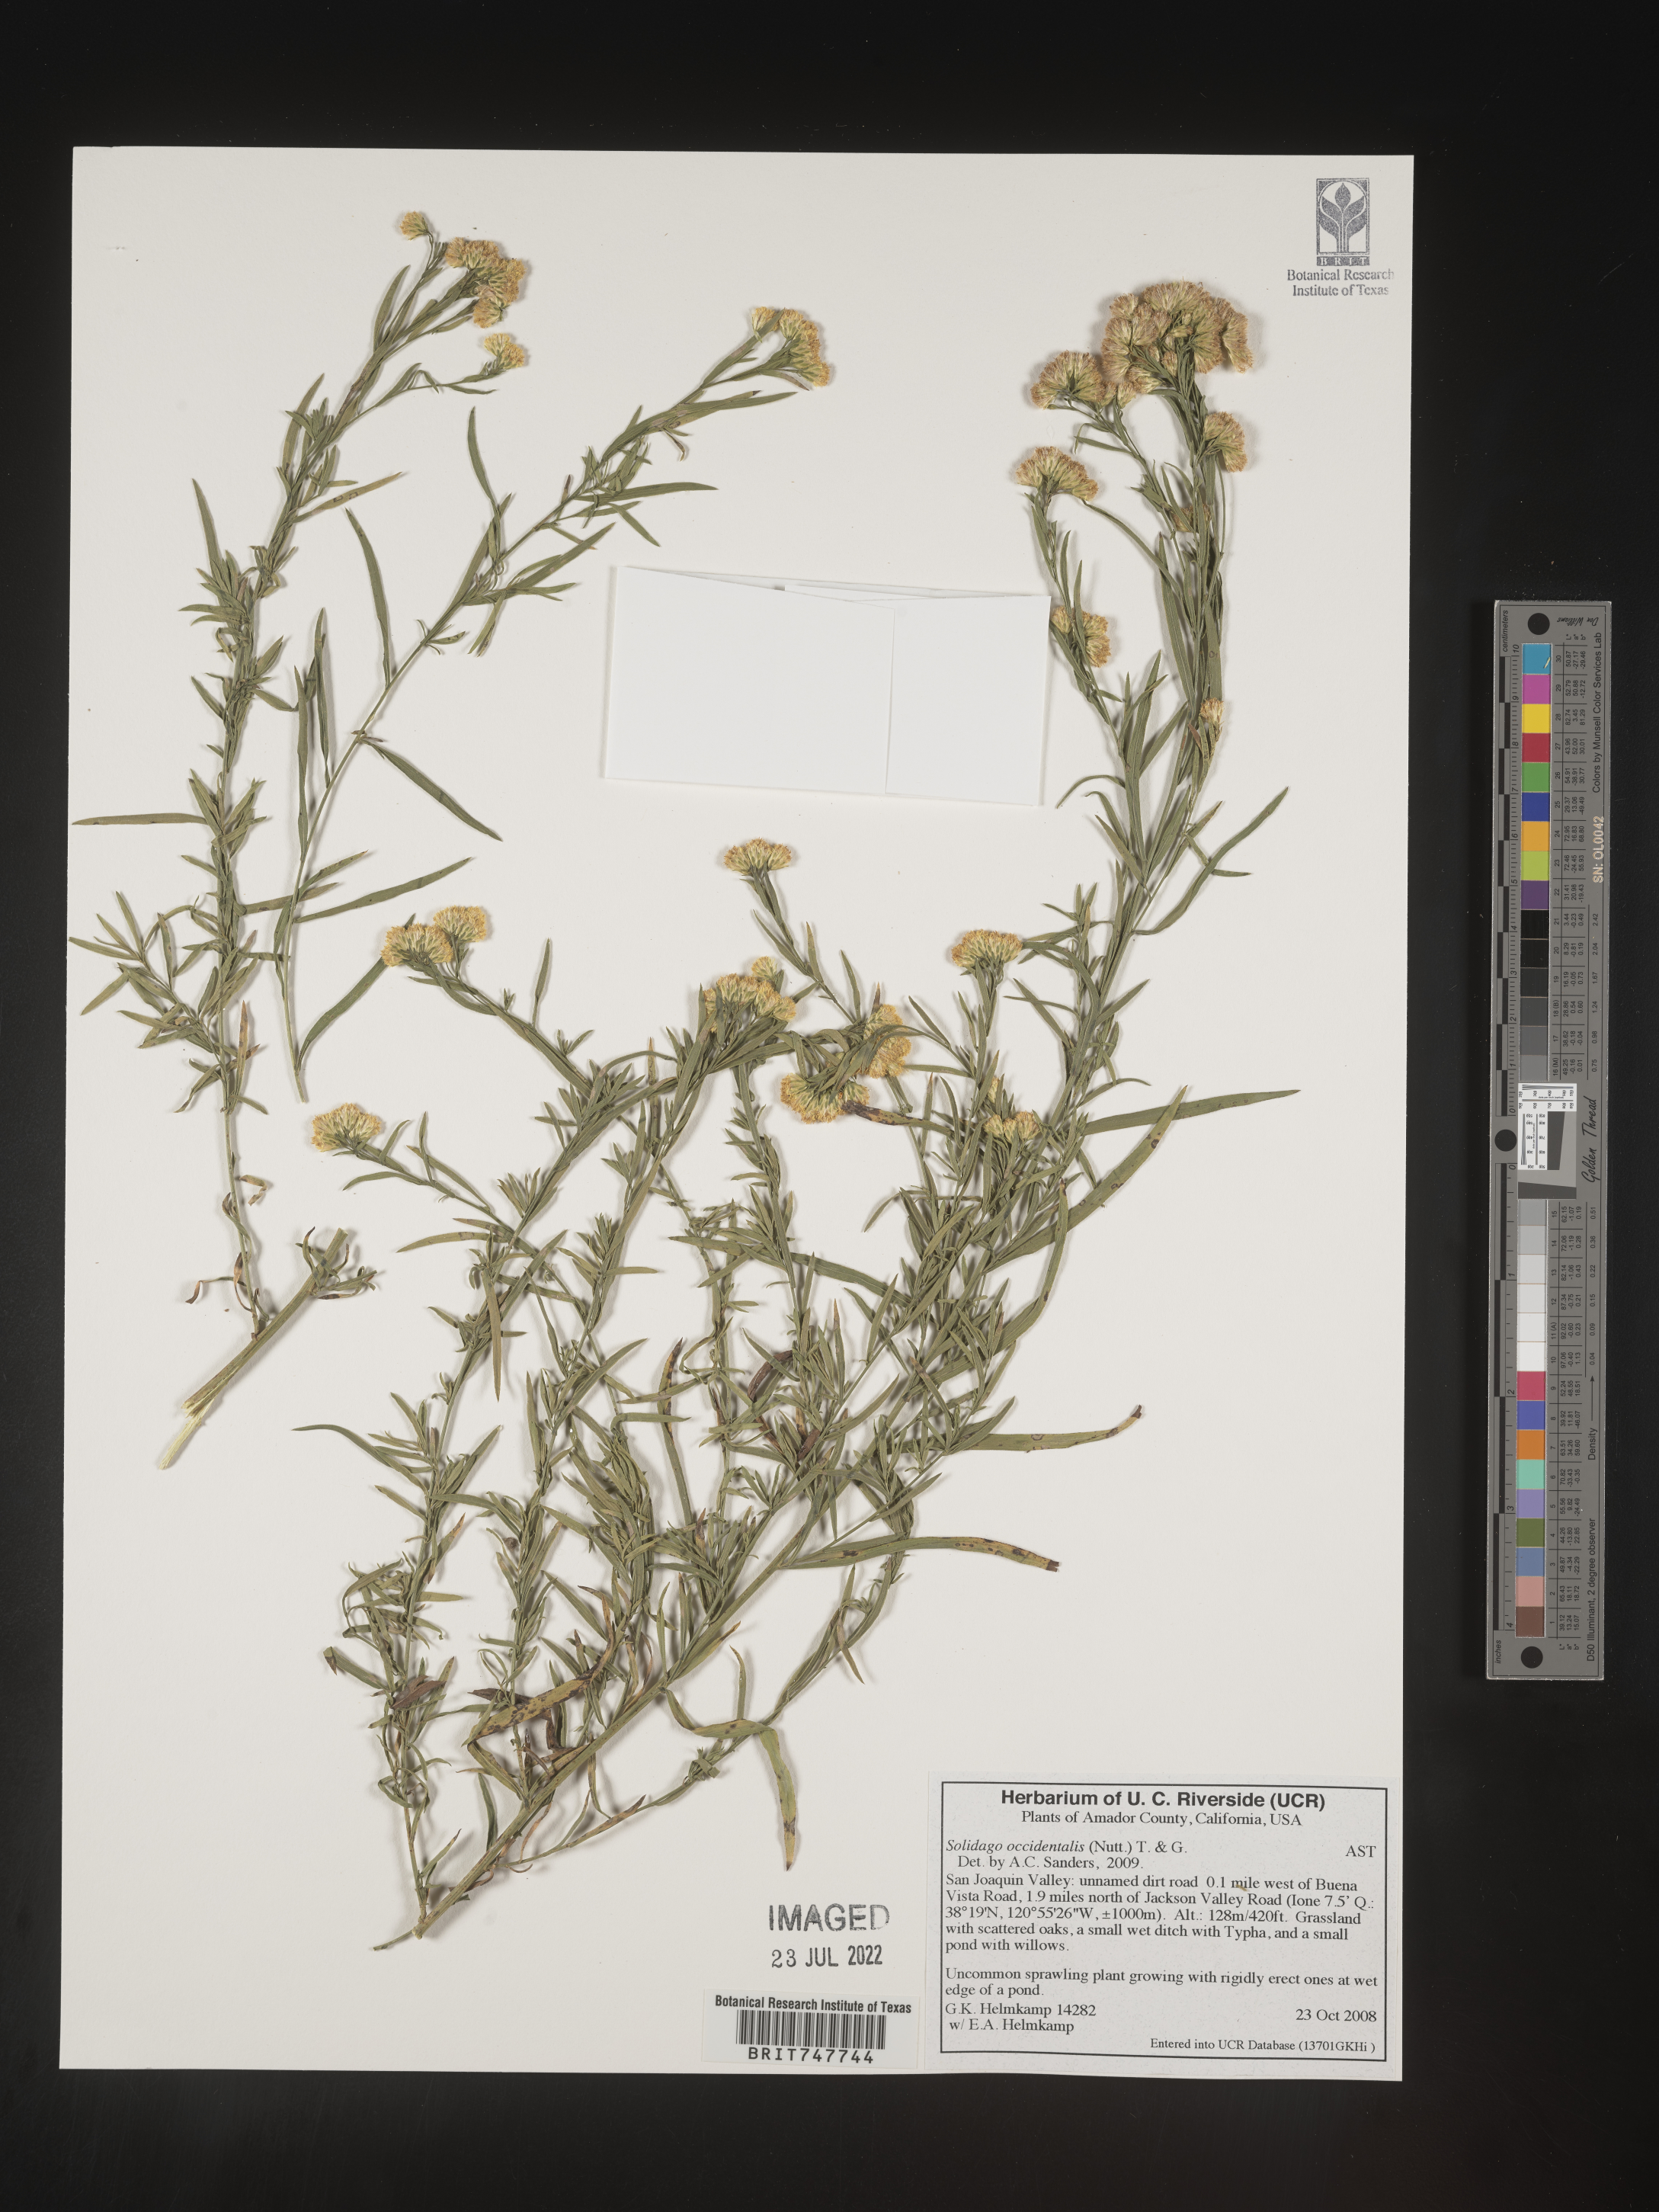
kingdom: Plantae
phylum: Tracheophyta
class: Magnoliopsida
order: Asterales
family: Asteraceae
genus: Euthamia
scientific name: Euthamia occidentalis
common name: Western goldentop
